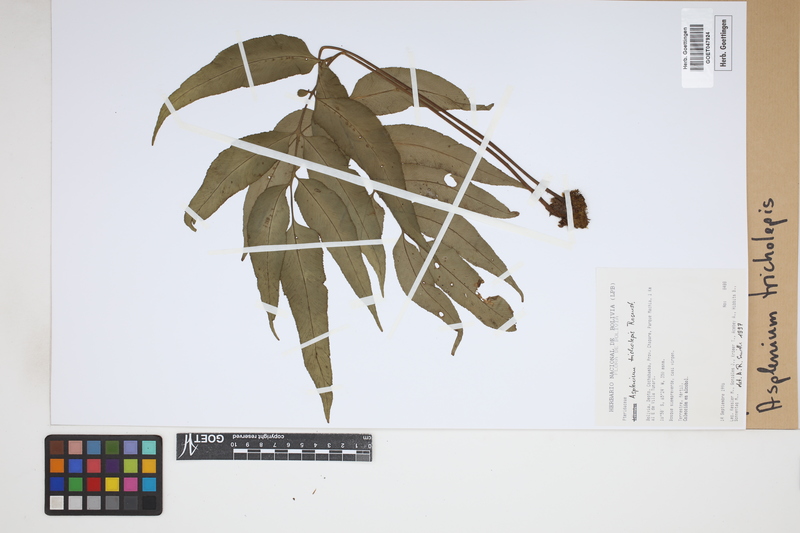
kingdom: Plantae
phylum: Tracheophyta
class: Polypodiopsida
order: Polypodiales
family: Aspleniaceae
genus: Asplenium
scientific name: Asplenium tricholepis
